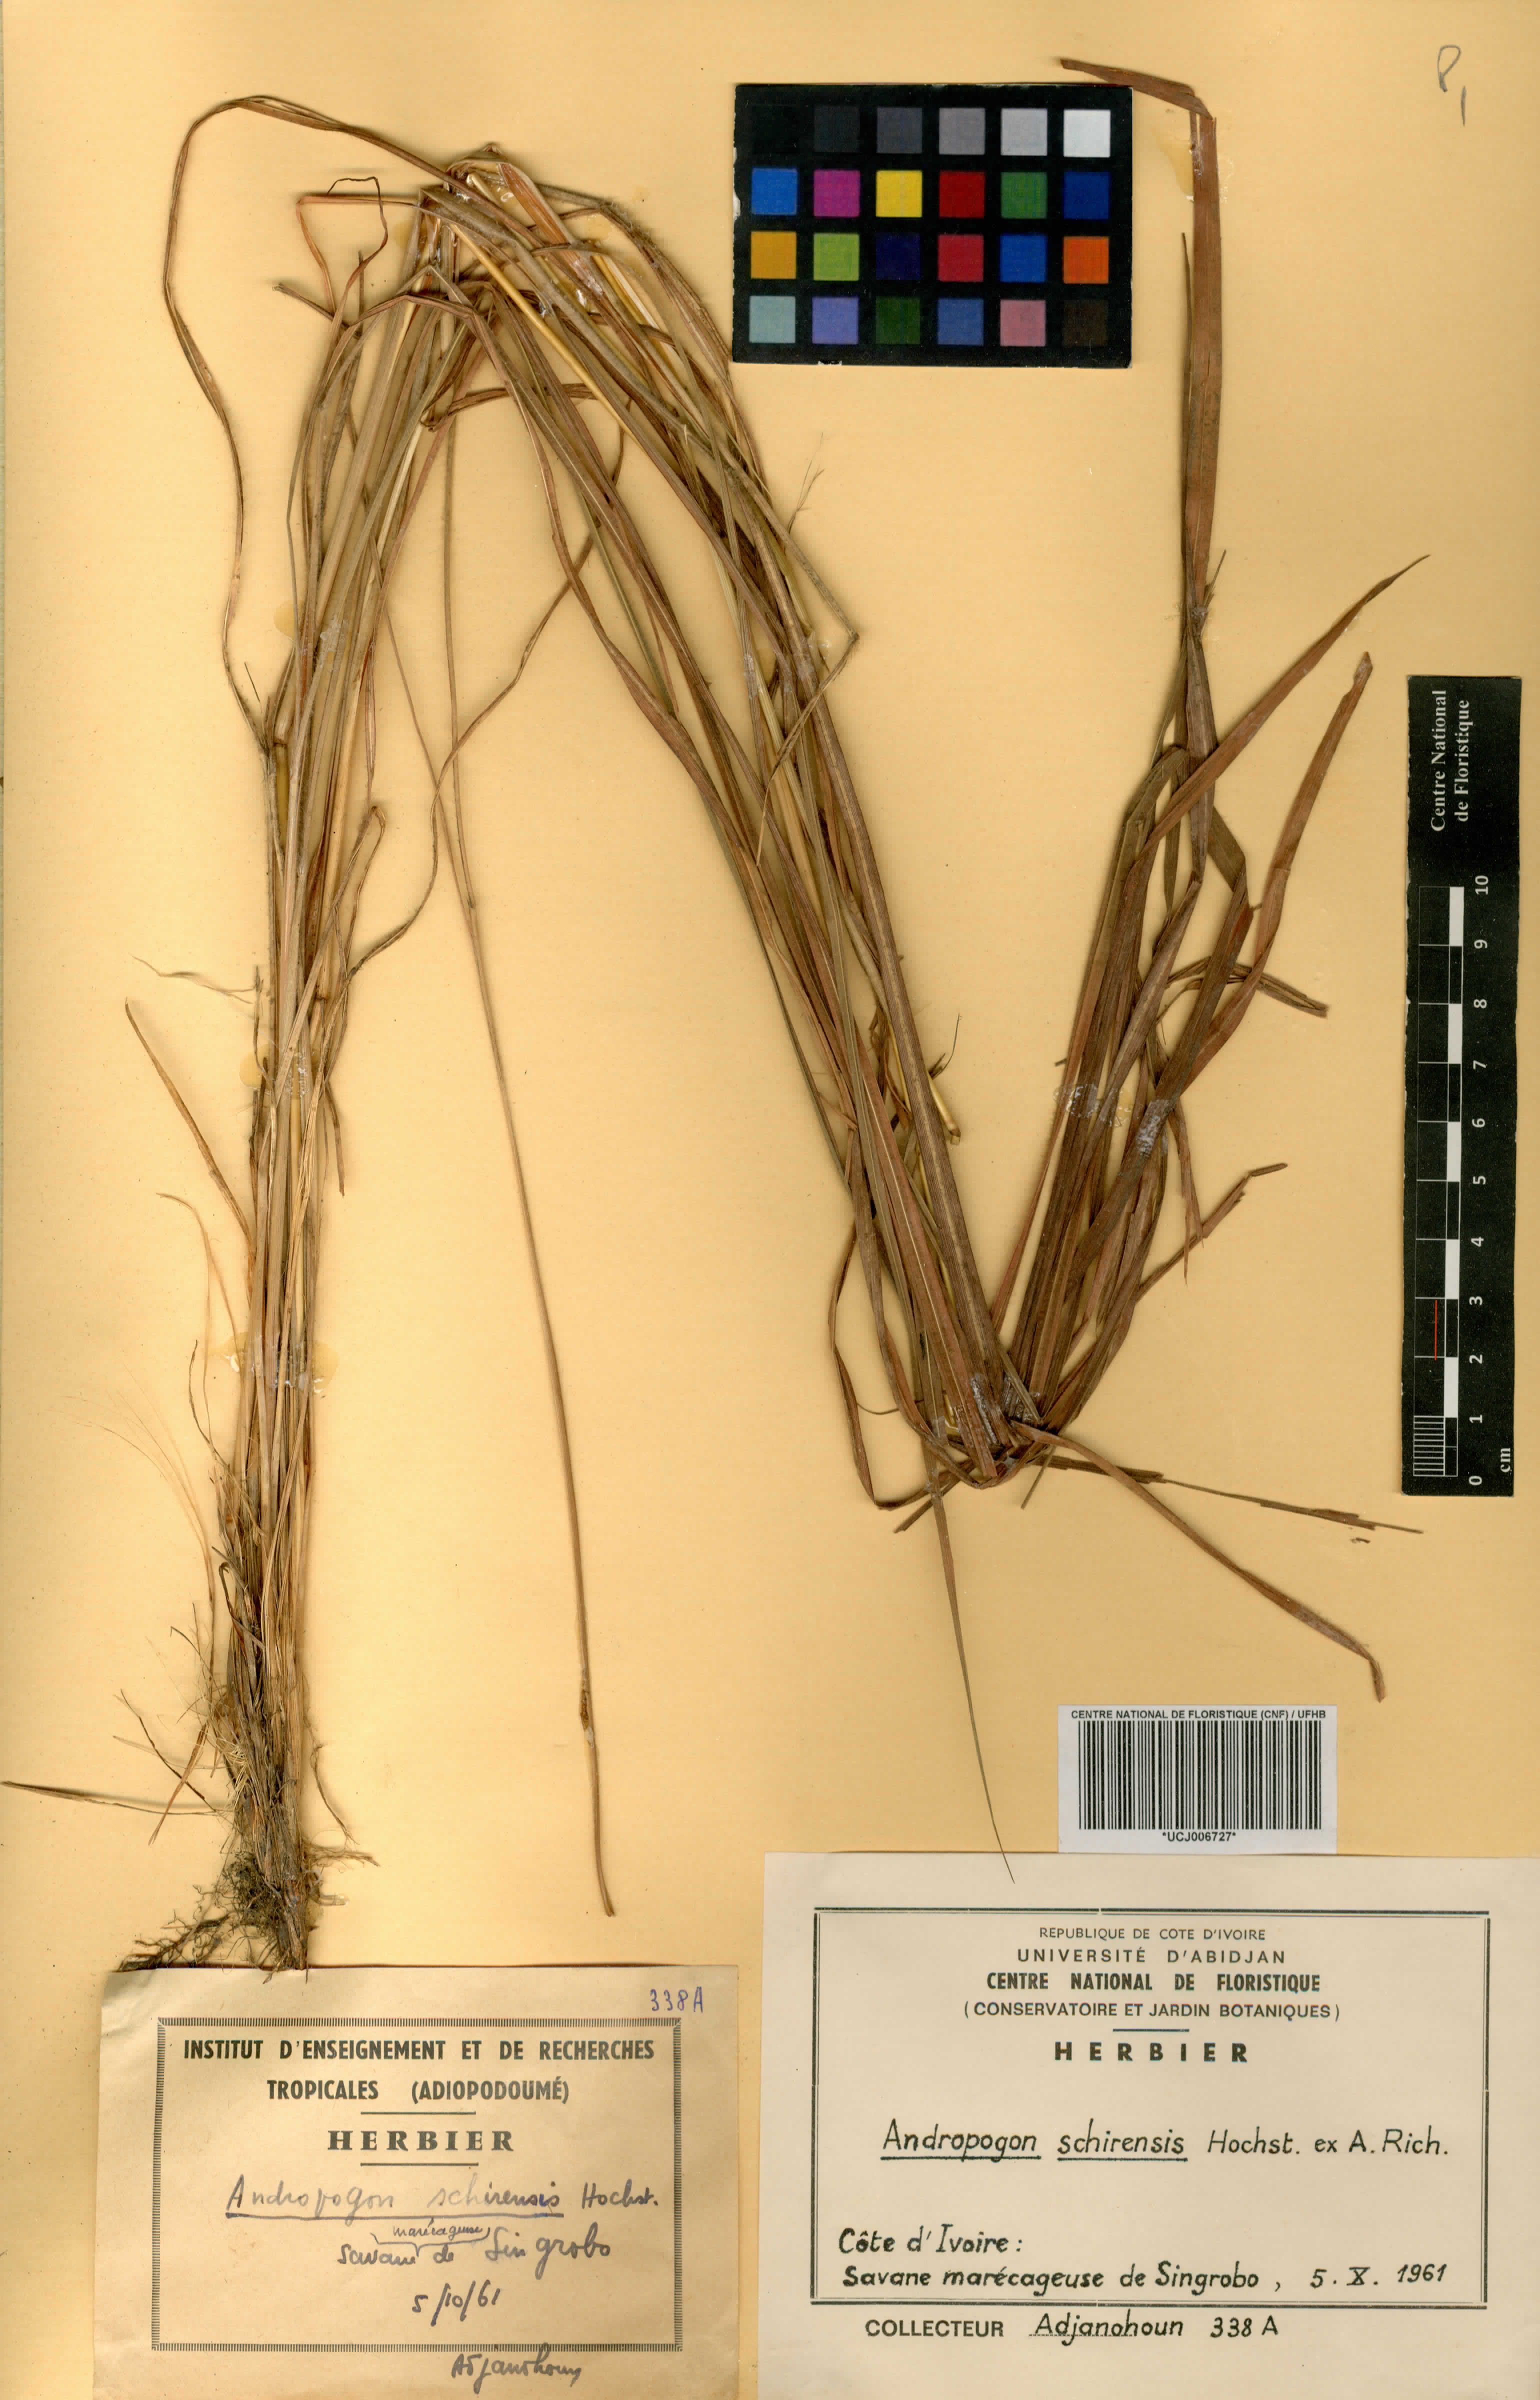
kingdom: Plantae
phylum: Tracheophyta
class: Liliopsida
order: Poales
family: Poaceae
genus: Andropogon
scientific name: Andropogon schirensis
